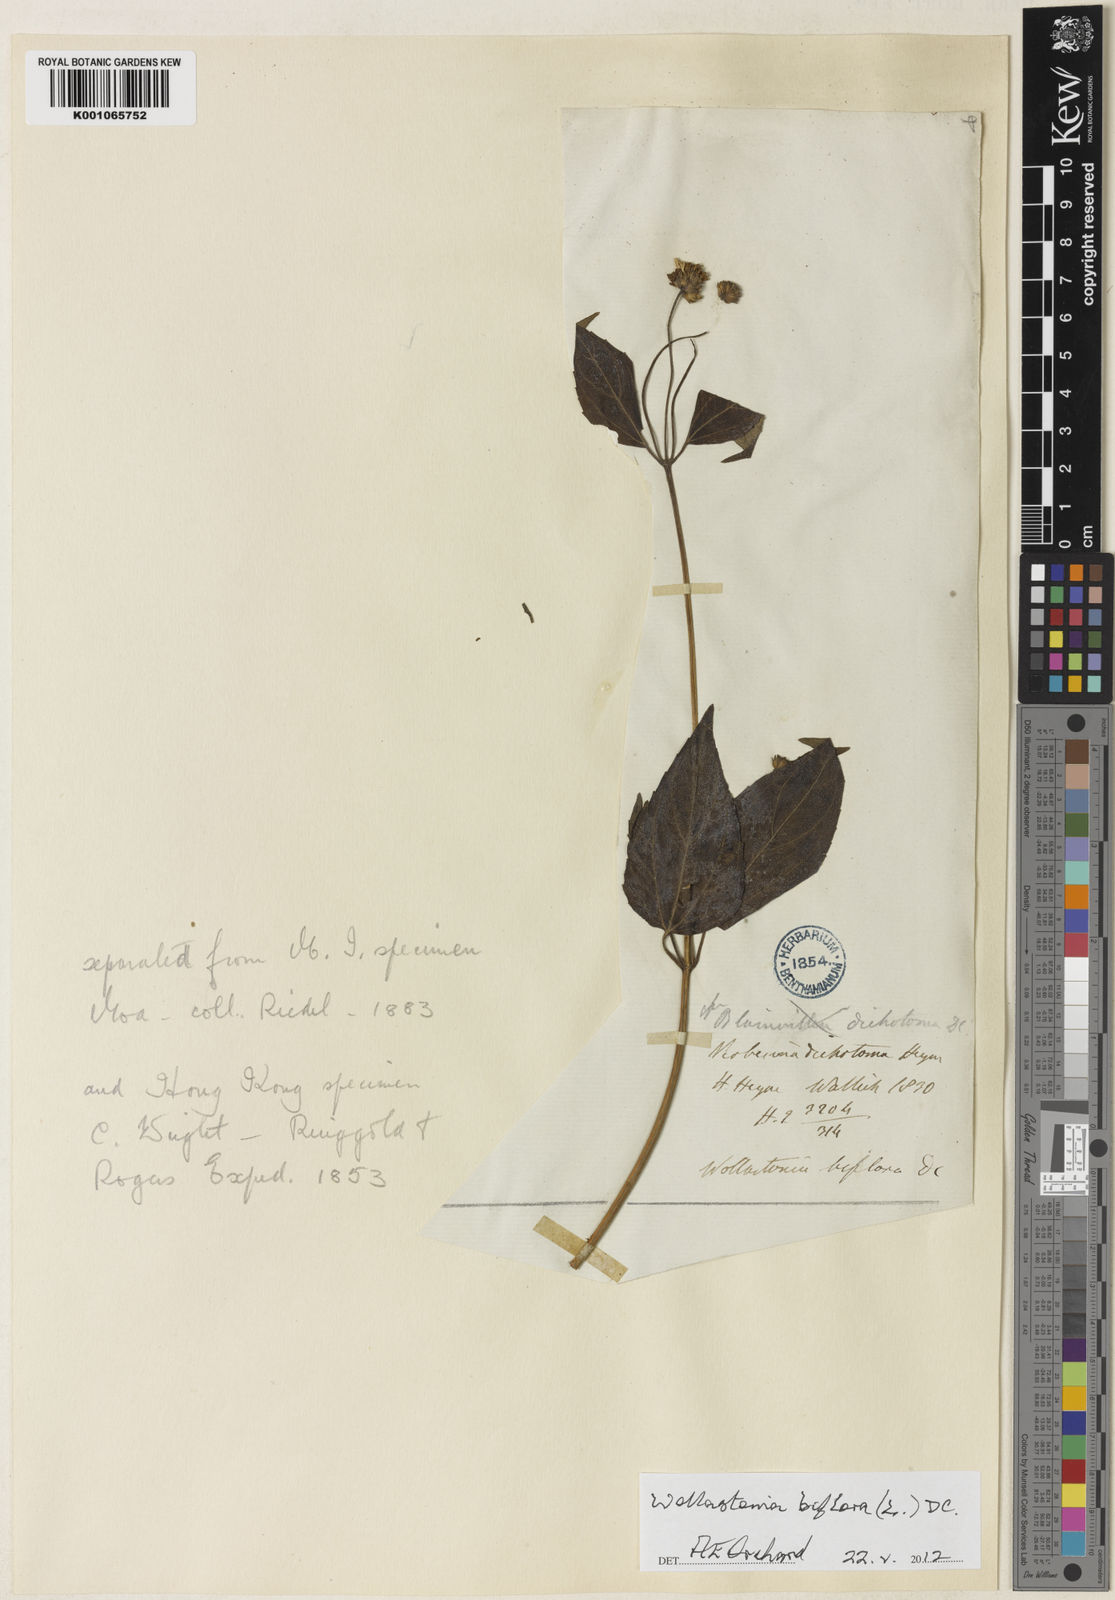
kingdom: Plantae
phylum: Tracheophyta
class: Magnoliopsida
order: Asterales
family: Asteraceae
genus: Wollastonia
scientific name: Wollastonia biflora
